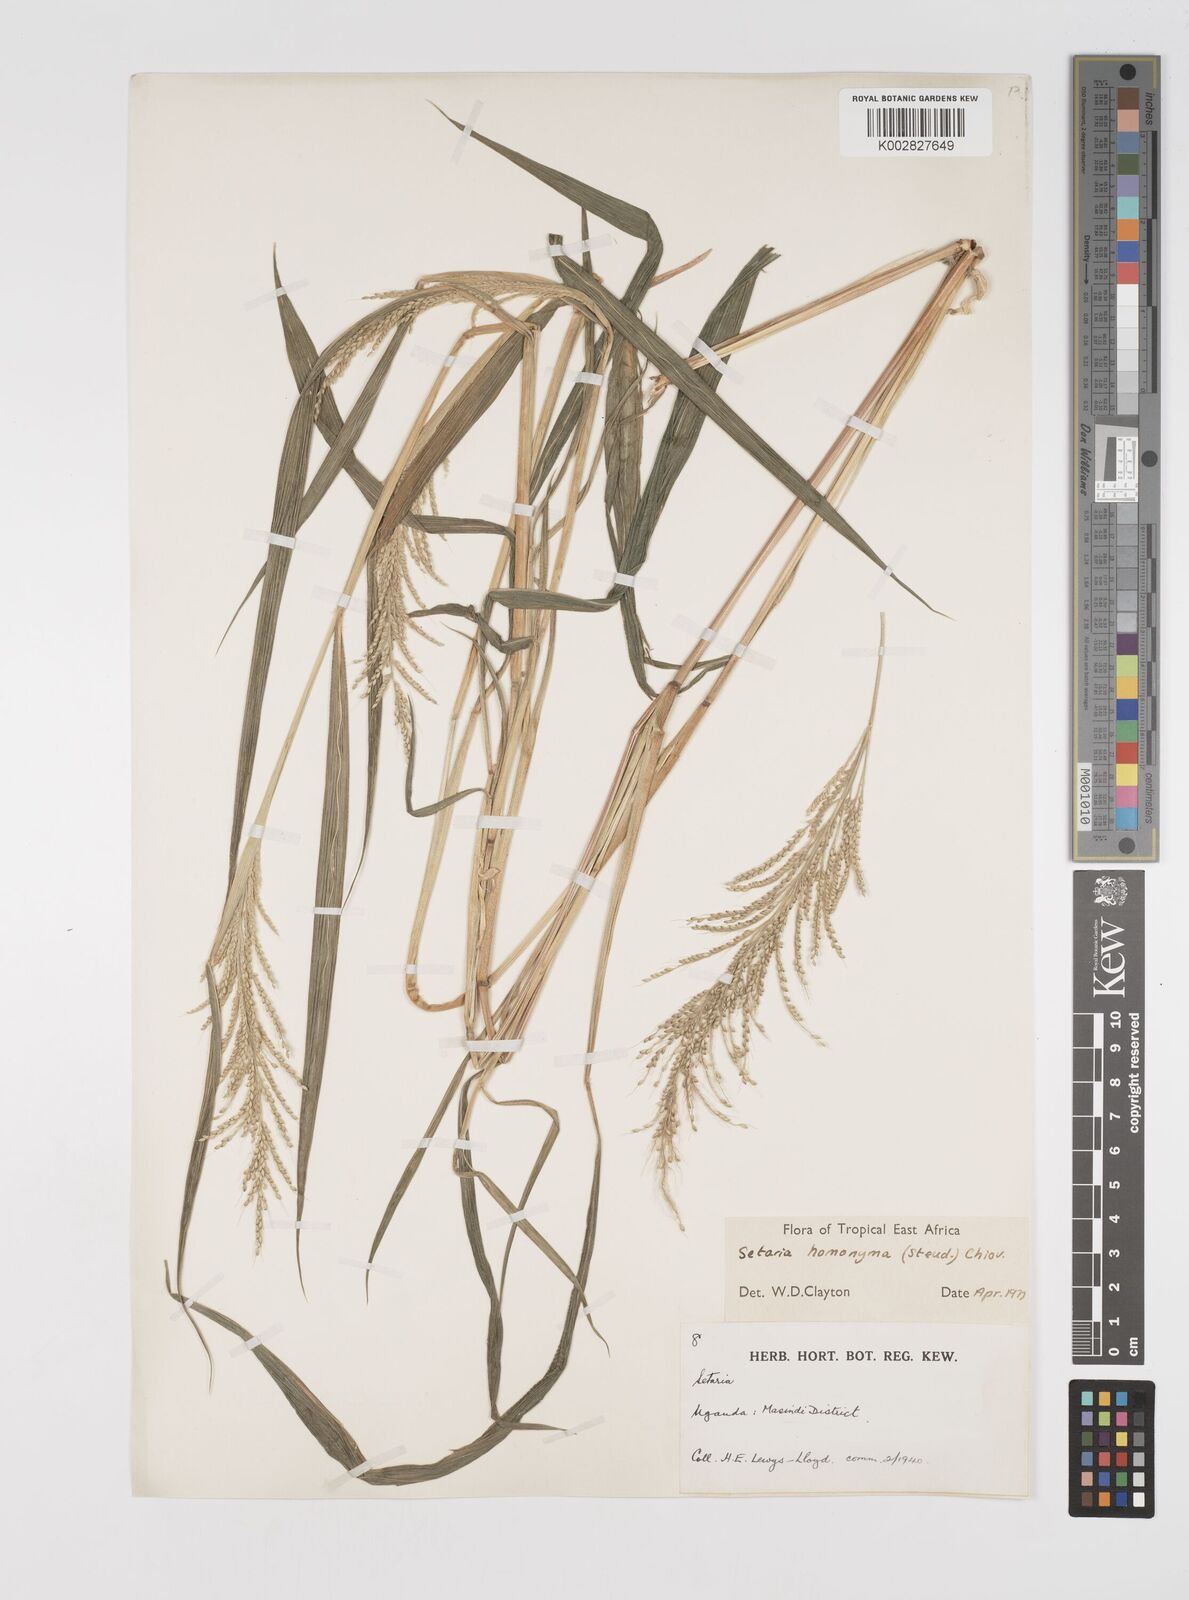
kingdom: Plantae
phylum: Tracheophyta
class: Liliopsida
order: Poales
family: Poaceae
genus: Setaria
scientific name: Setaria homonyma
